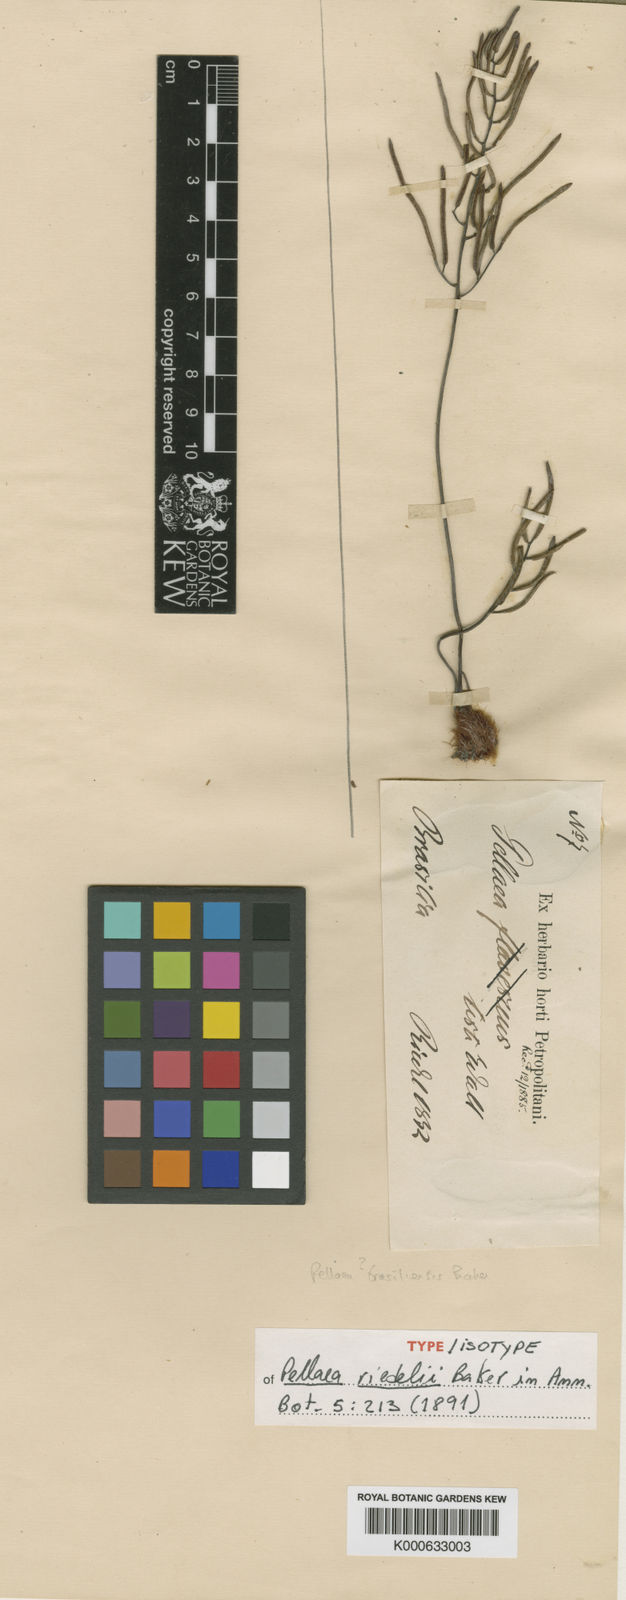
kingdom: Plantae
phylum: Tracheophyta
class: Polypodiopsida
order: Polypodiales
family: Pteridaceae
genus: Ormopteris
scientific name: Ormopteris riedelii
